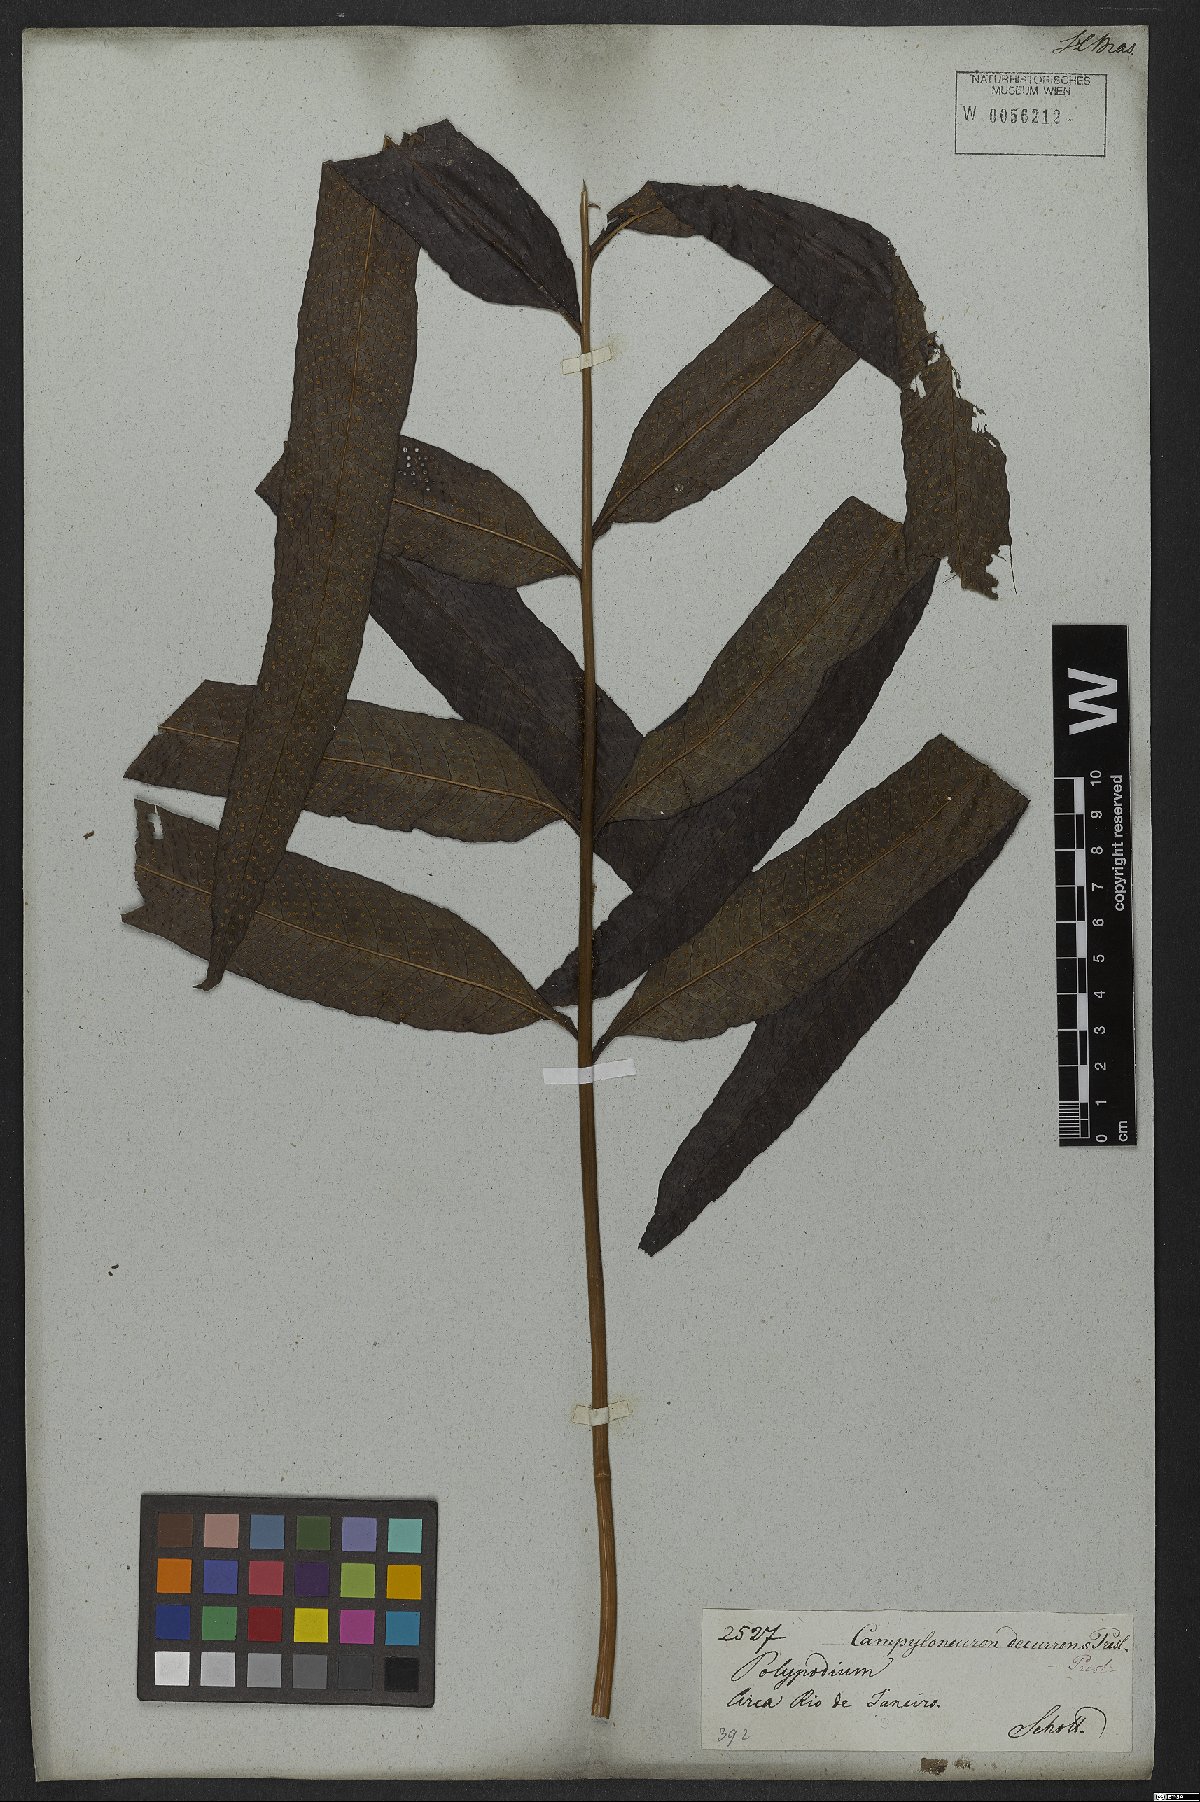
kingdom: Plantae
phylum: Tracheophyta
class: Polypodiopsida
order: Polypodiales
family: Polypodiaceae
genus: Campyloneurum
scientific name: Campyloneurum decurrens
